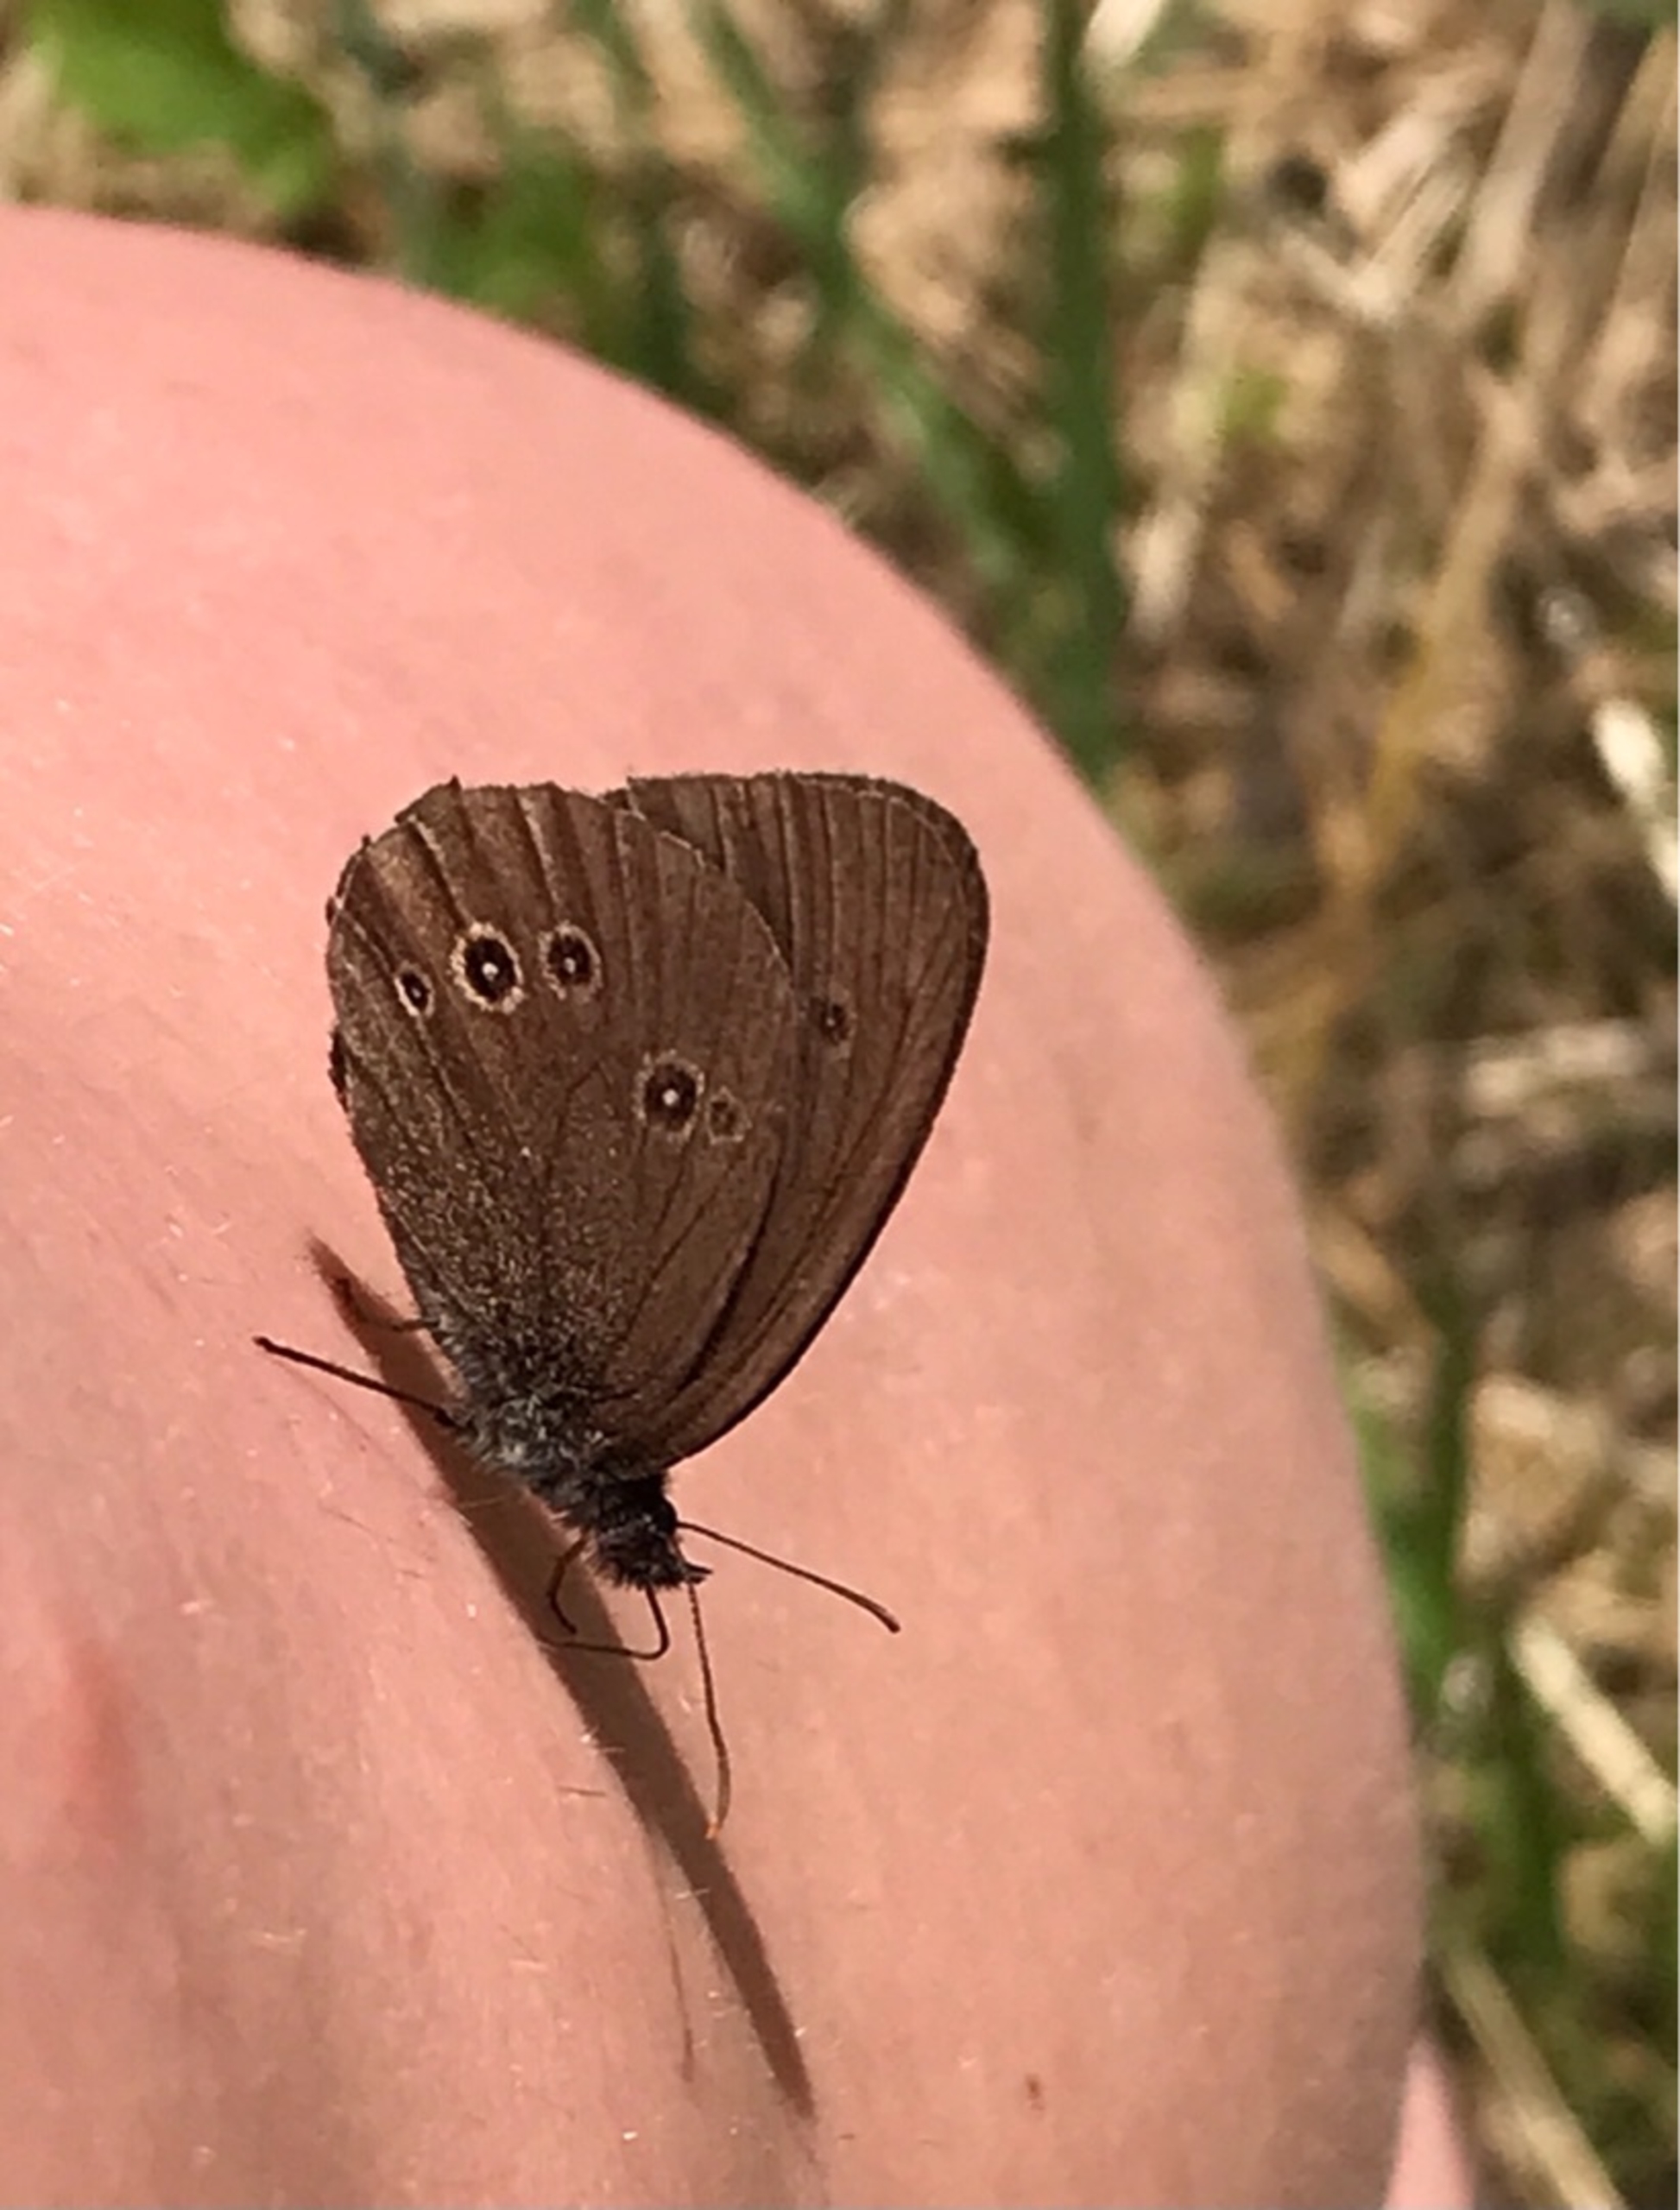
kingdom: Animalia
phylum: Arthropoda
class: Insecta
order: Lepidoptera
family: Nymphalidae
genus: Aphantopus
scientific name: Aphantopus hyperantus
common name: Engrandøje
